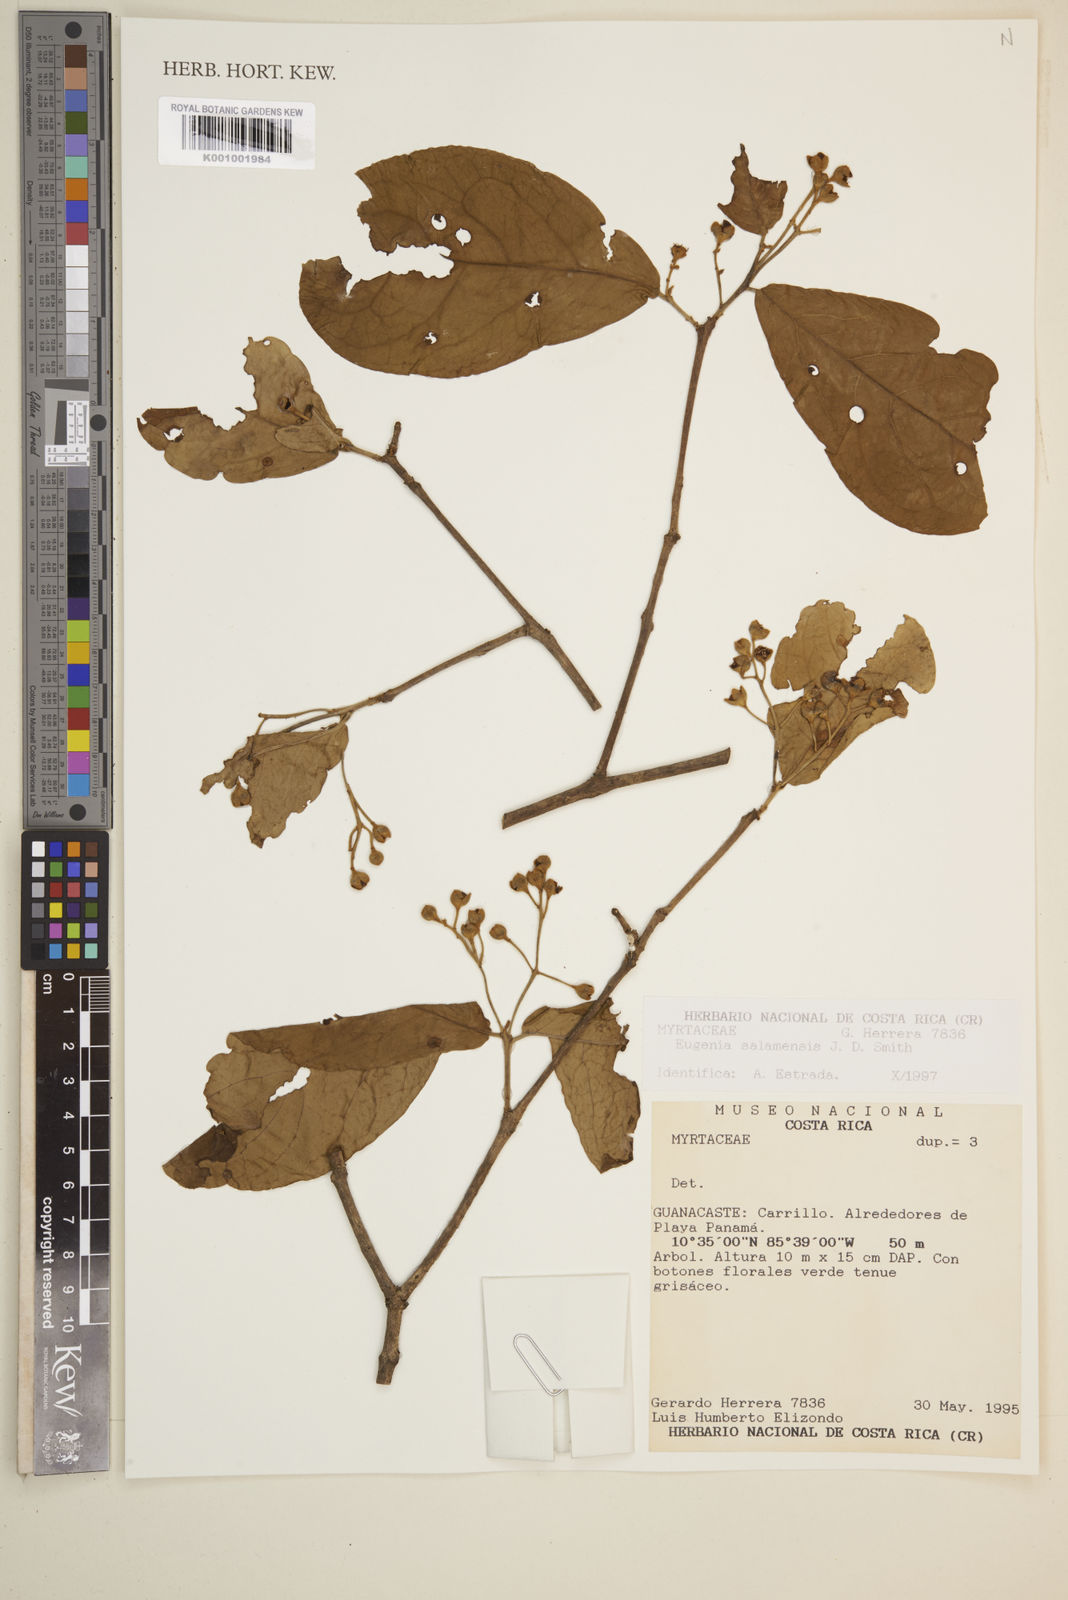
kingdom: Plantae
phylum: Tracheophyta
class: Magnoliopsida
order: Myrtales
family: Myrtaceae
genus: Eugenia
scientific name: Eugenia salamensis
